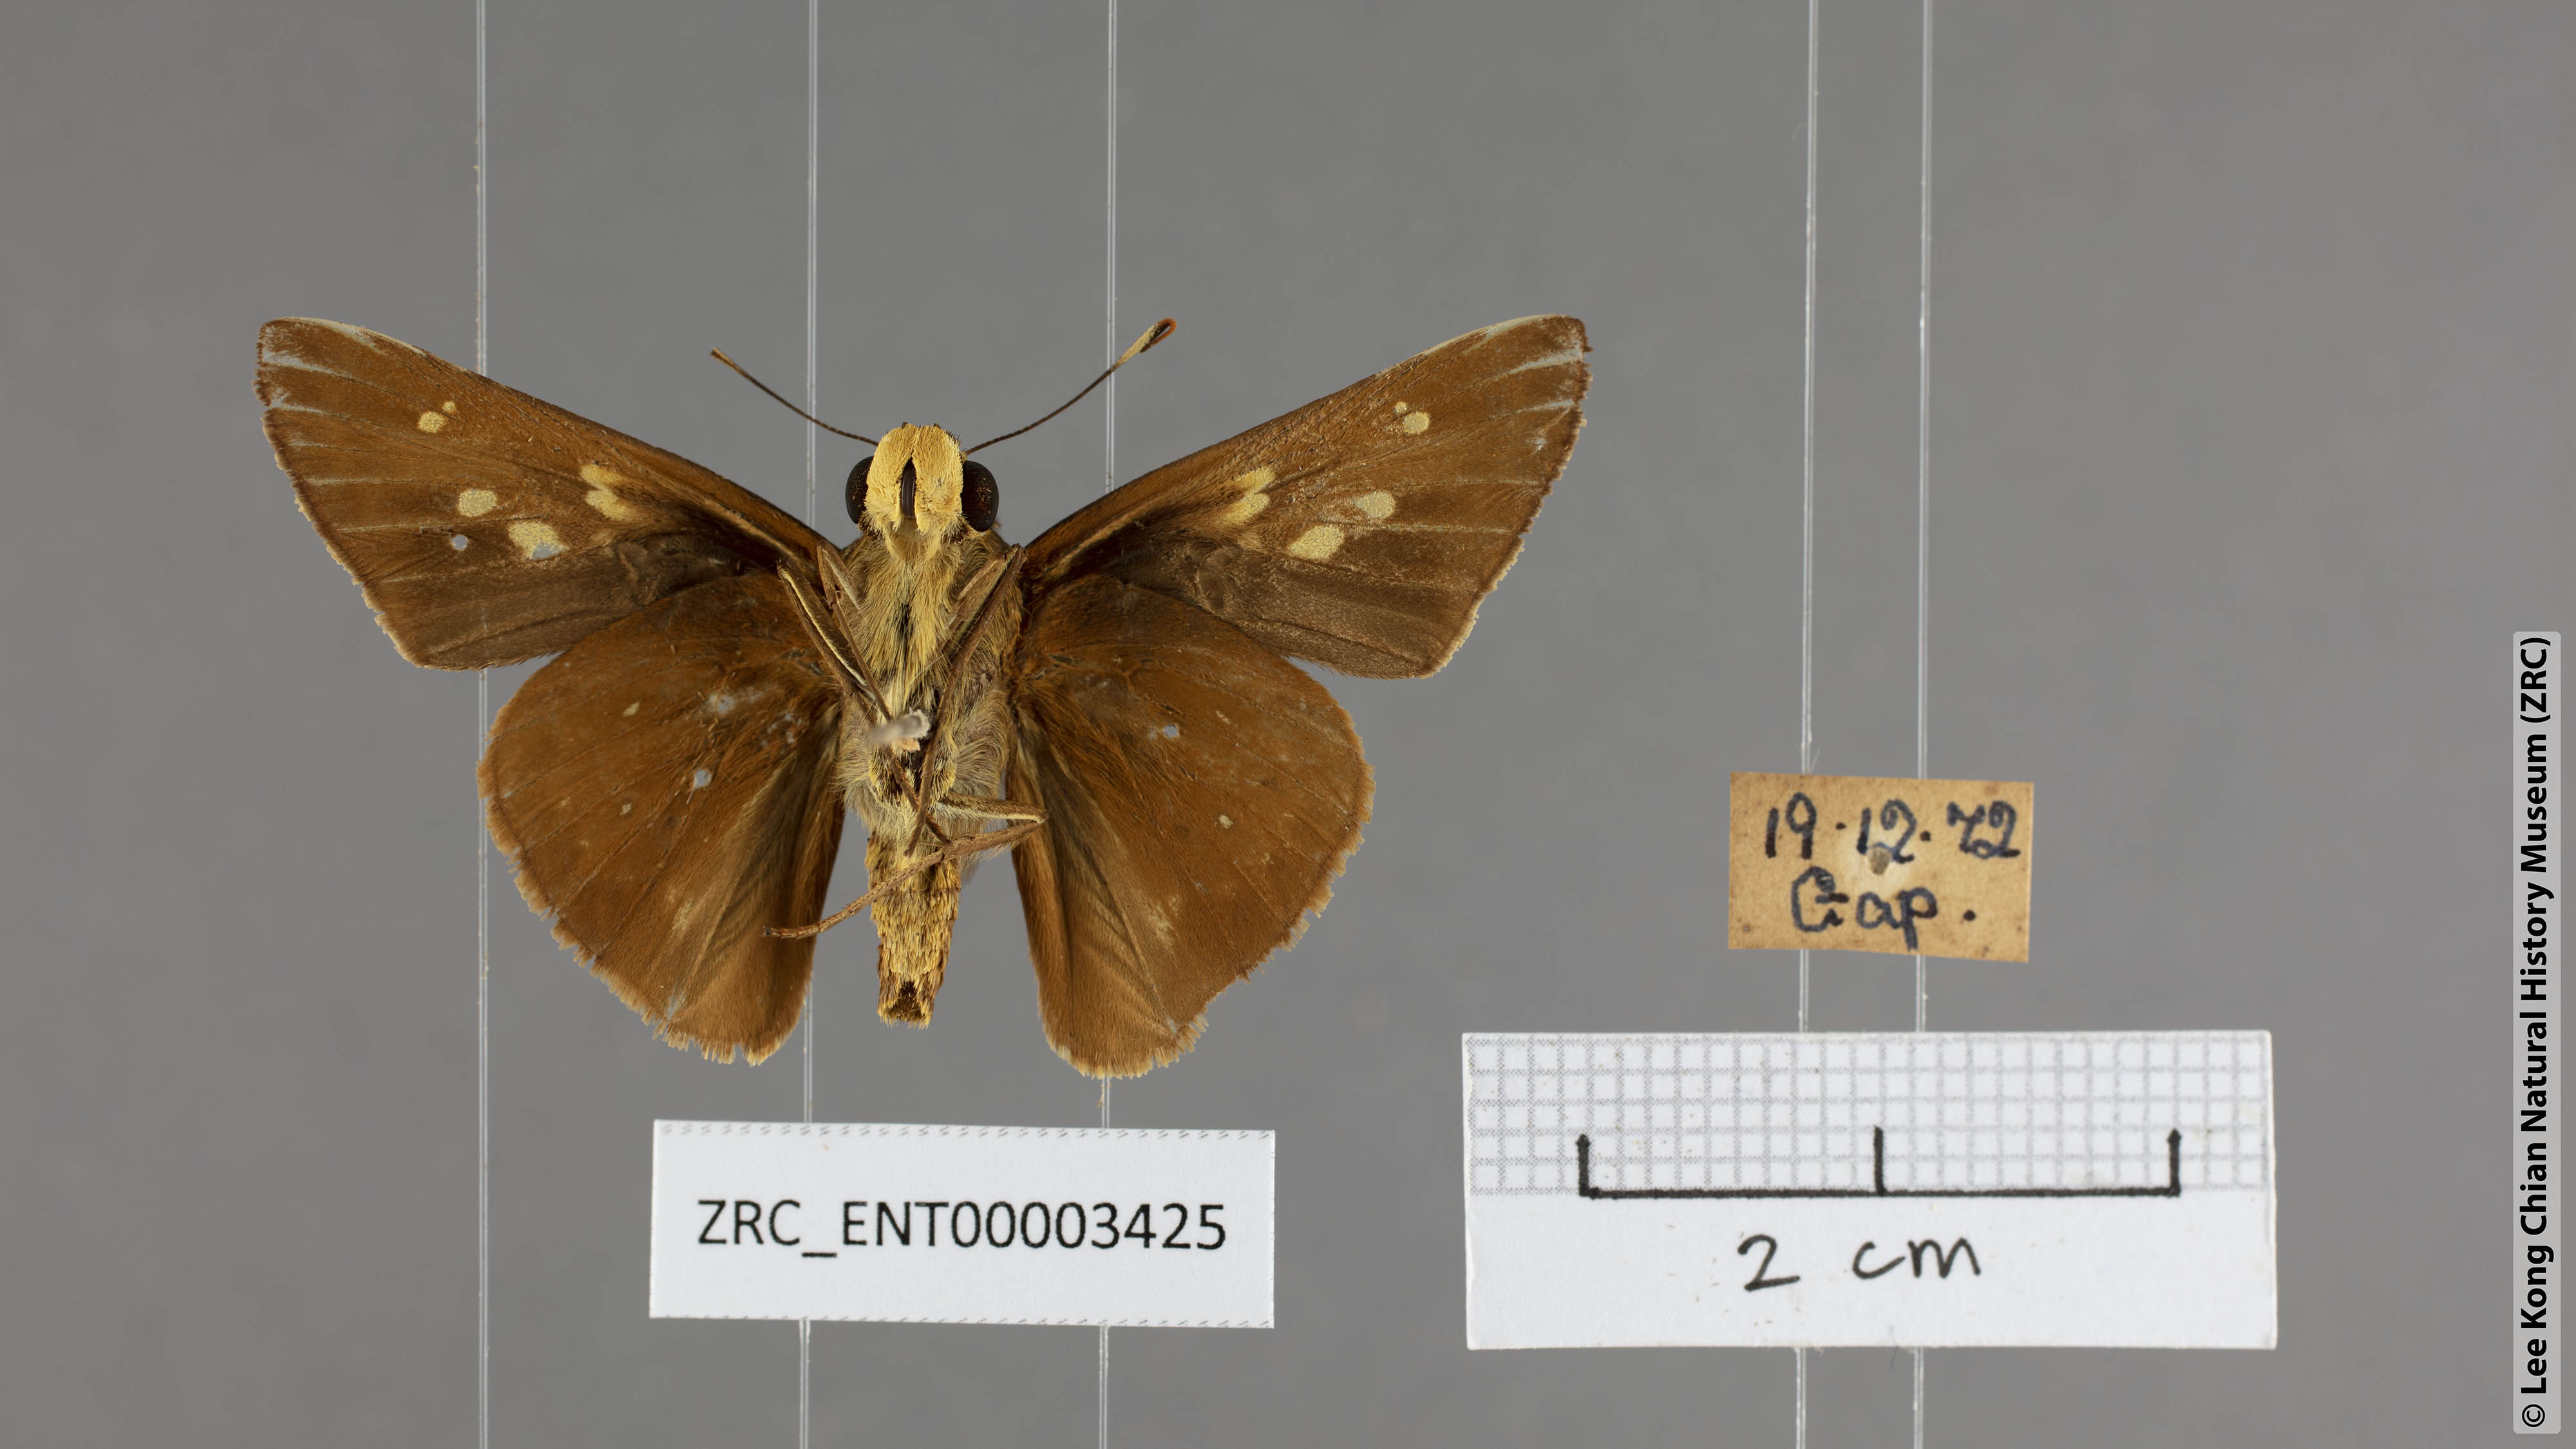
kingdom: Animalia
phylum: Arthropoda
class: Insecta
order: Lepidoptera
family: Hesperiidae
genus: Pithauria
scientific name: Pithauria marsena
